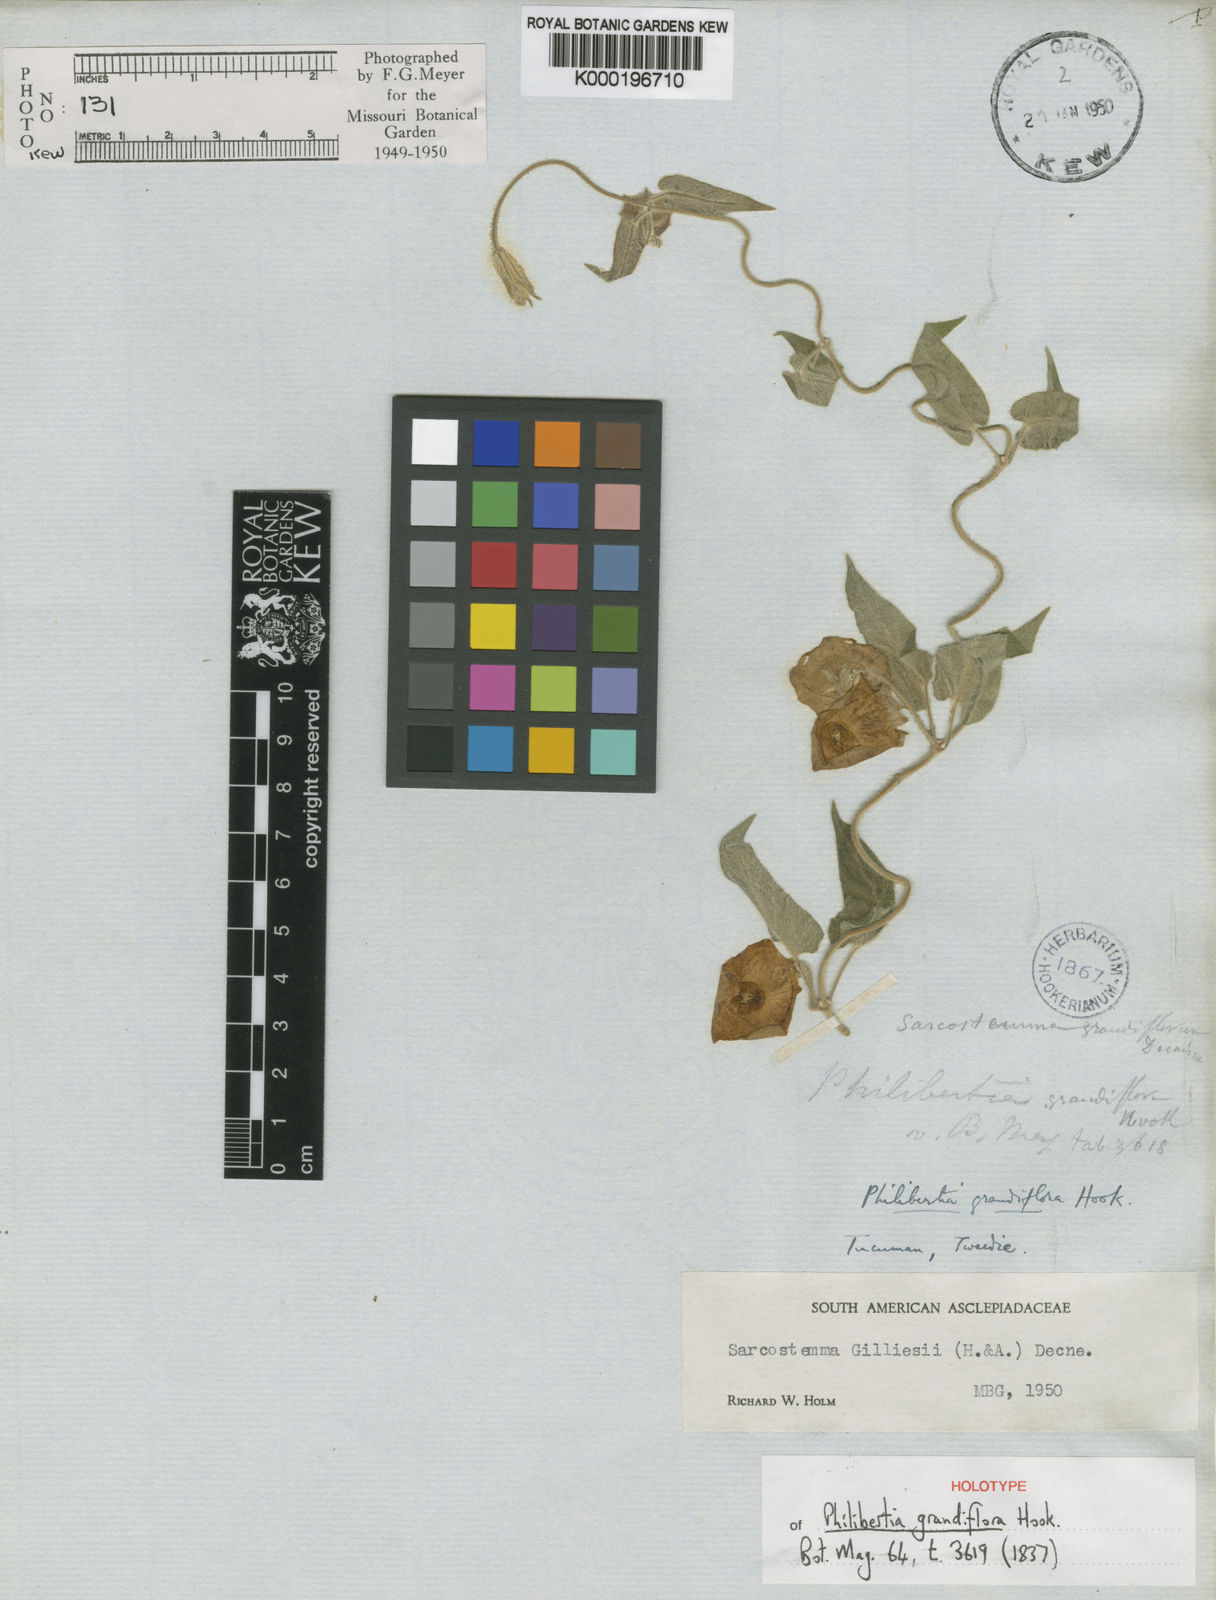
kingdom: Plantae
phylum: Tracheophyta
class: Magnoliopsida
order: Gentianales
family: Apocynaceae
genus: Philibertia
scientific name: Philibertia gilliesii
